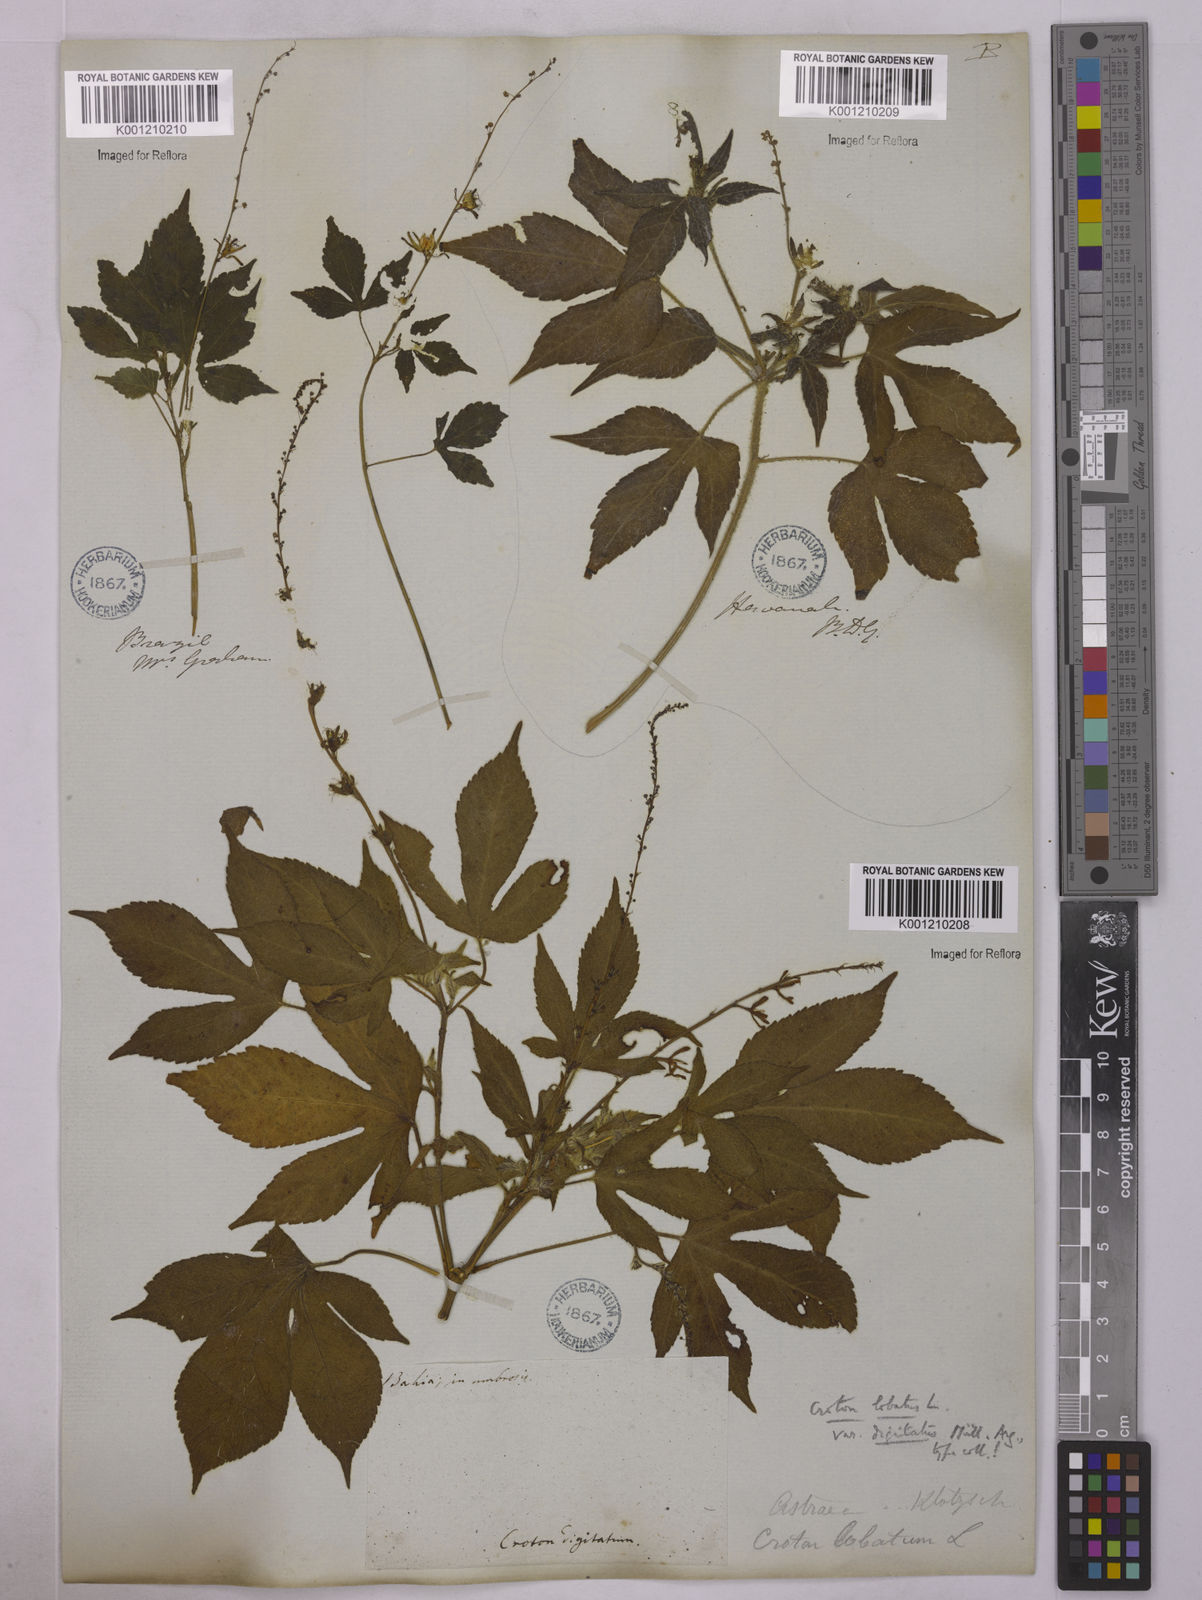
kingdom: Plantae
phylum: Tracheophyta
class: Magnoliopsida
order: Malpighiales
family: Euphorbiaceae
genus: Astraea
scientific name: Astraea lobata
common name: Lobed croton
